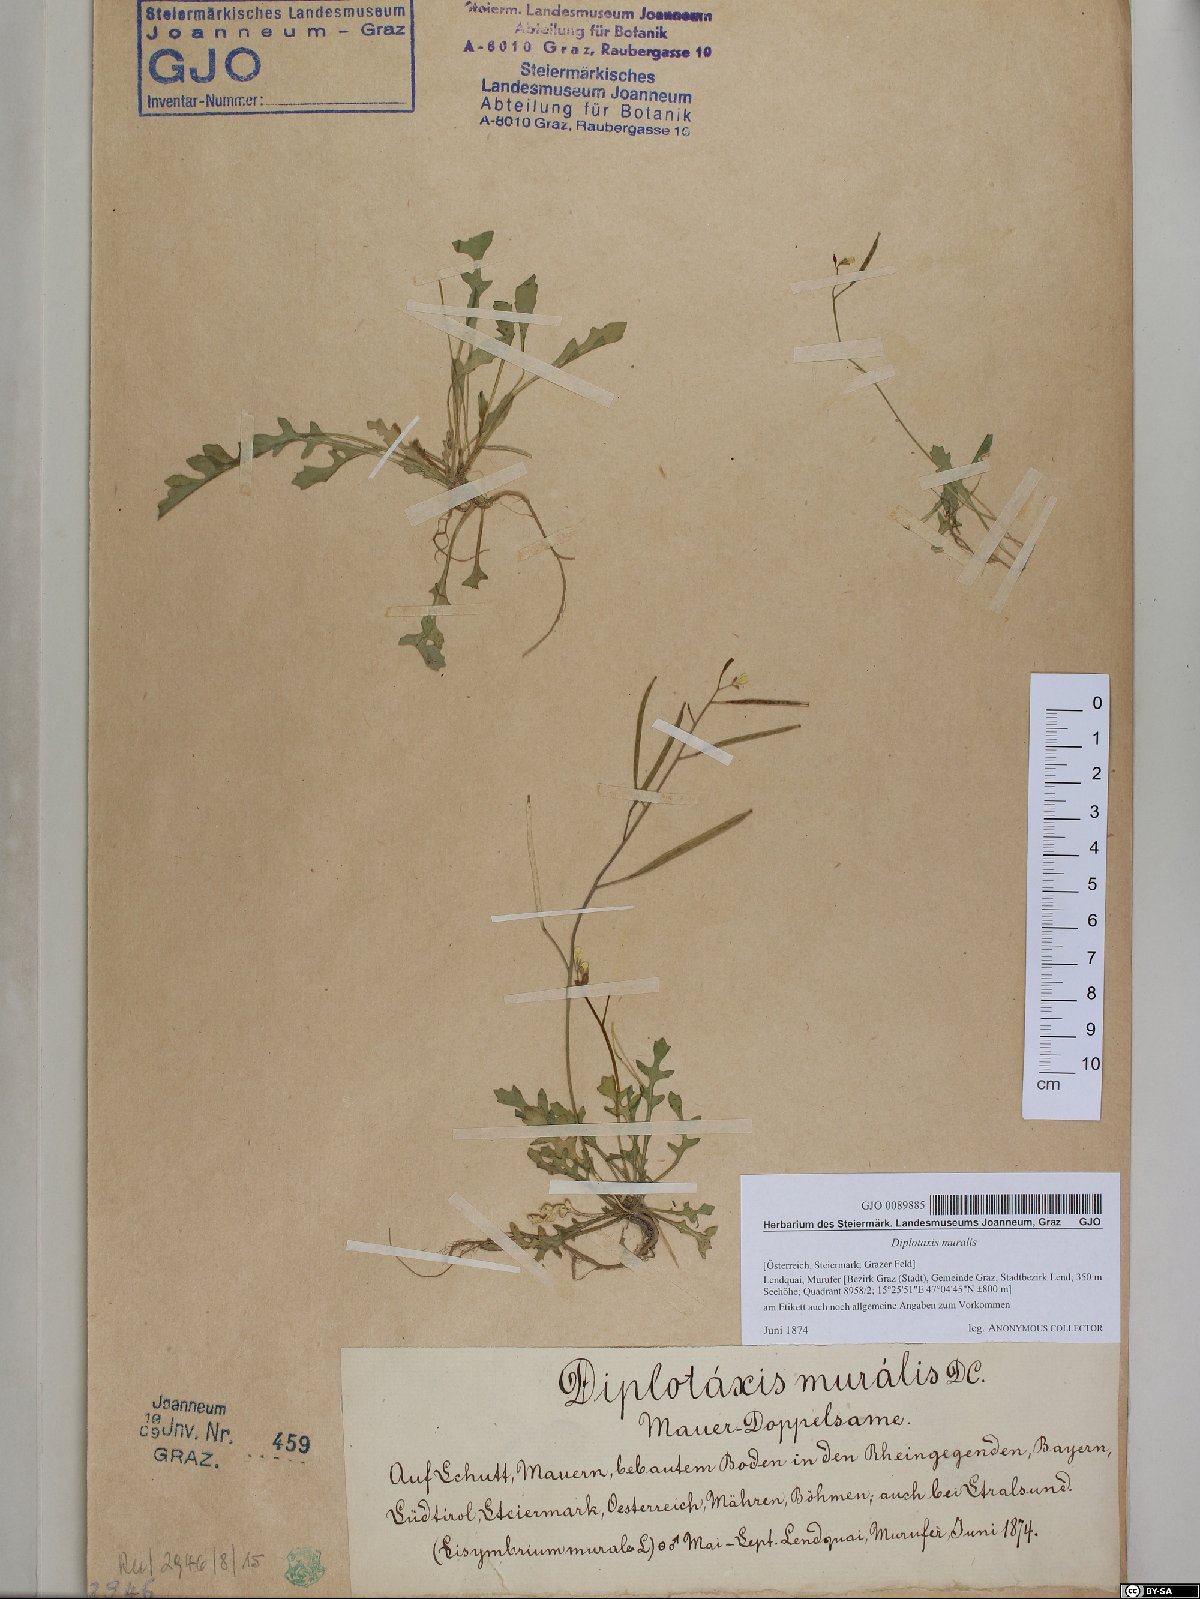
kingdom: Plantae
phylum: Tracheophyta
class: Magnoliopsida
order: Brassicales
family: Brassicaceae
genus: Diplotaxis
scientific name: Diplotaxis muralis
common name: Annual wall-rocket
